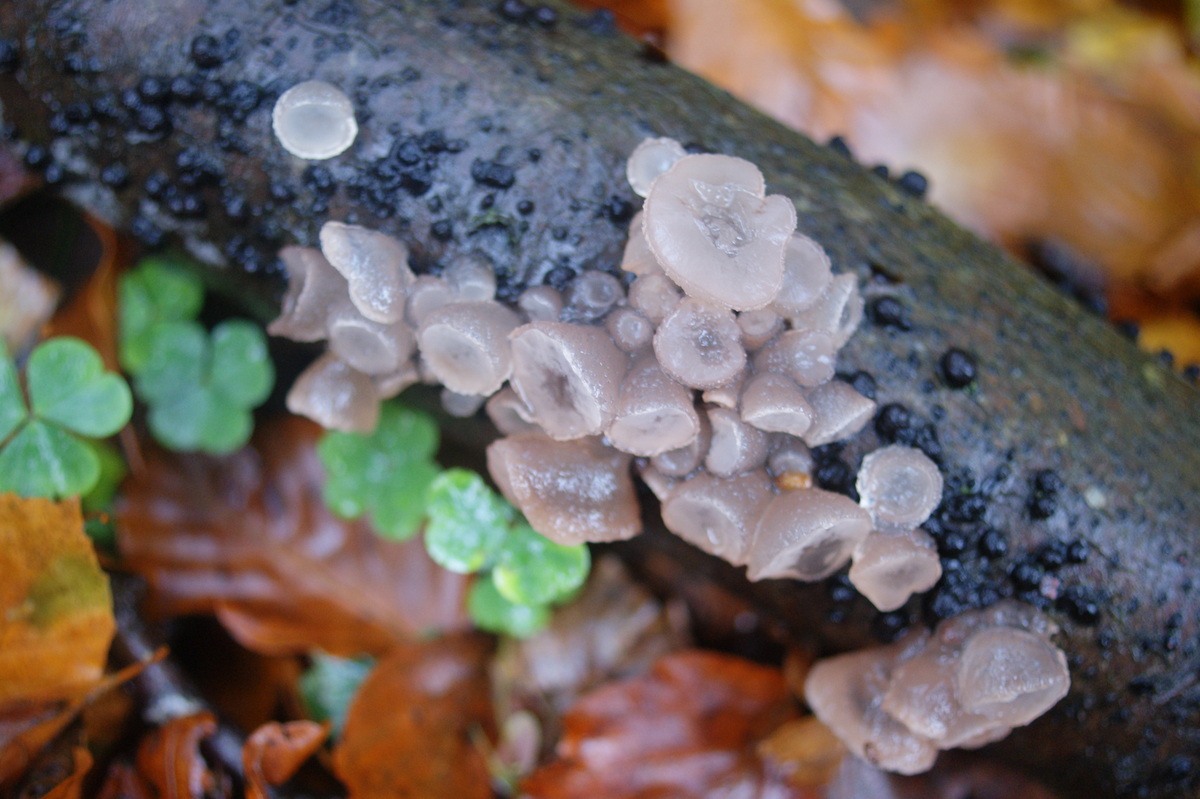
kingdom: Fungi
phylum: Ascomycota
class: Leotiomycetes
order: Helotiales
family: Gelatinodiscaceae
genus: Neobulgaria
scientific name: Neobulgaria pura
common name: bleg bævreskive
